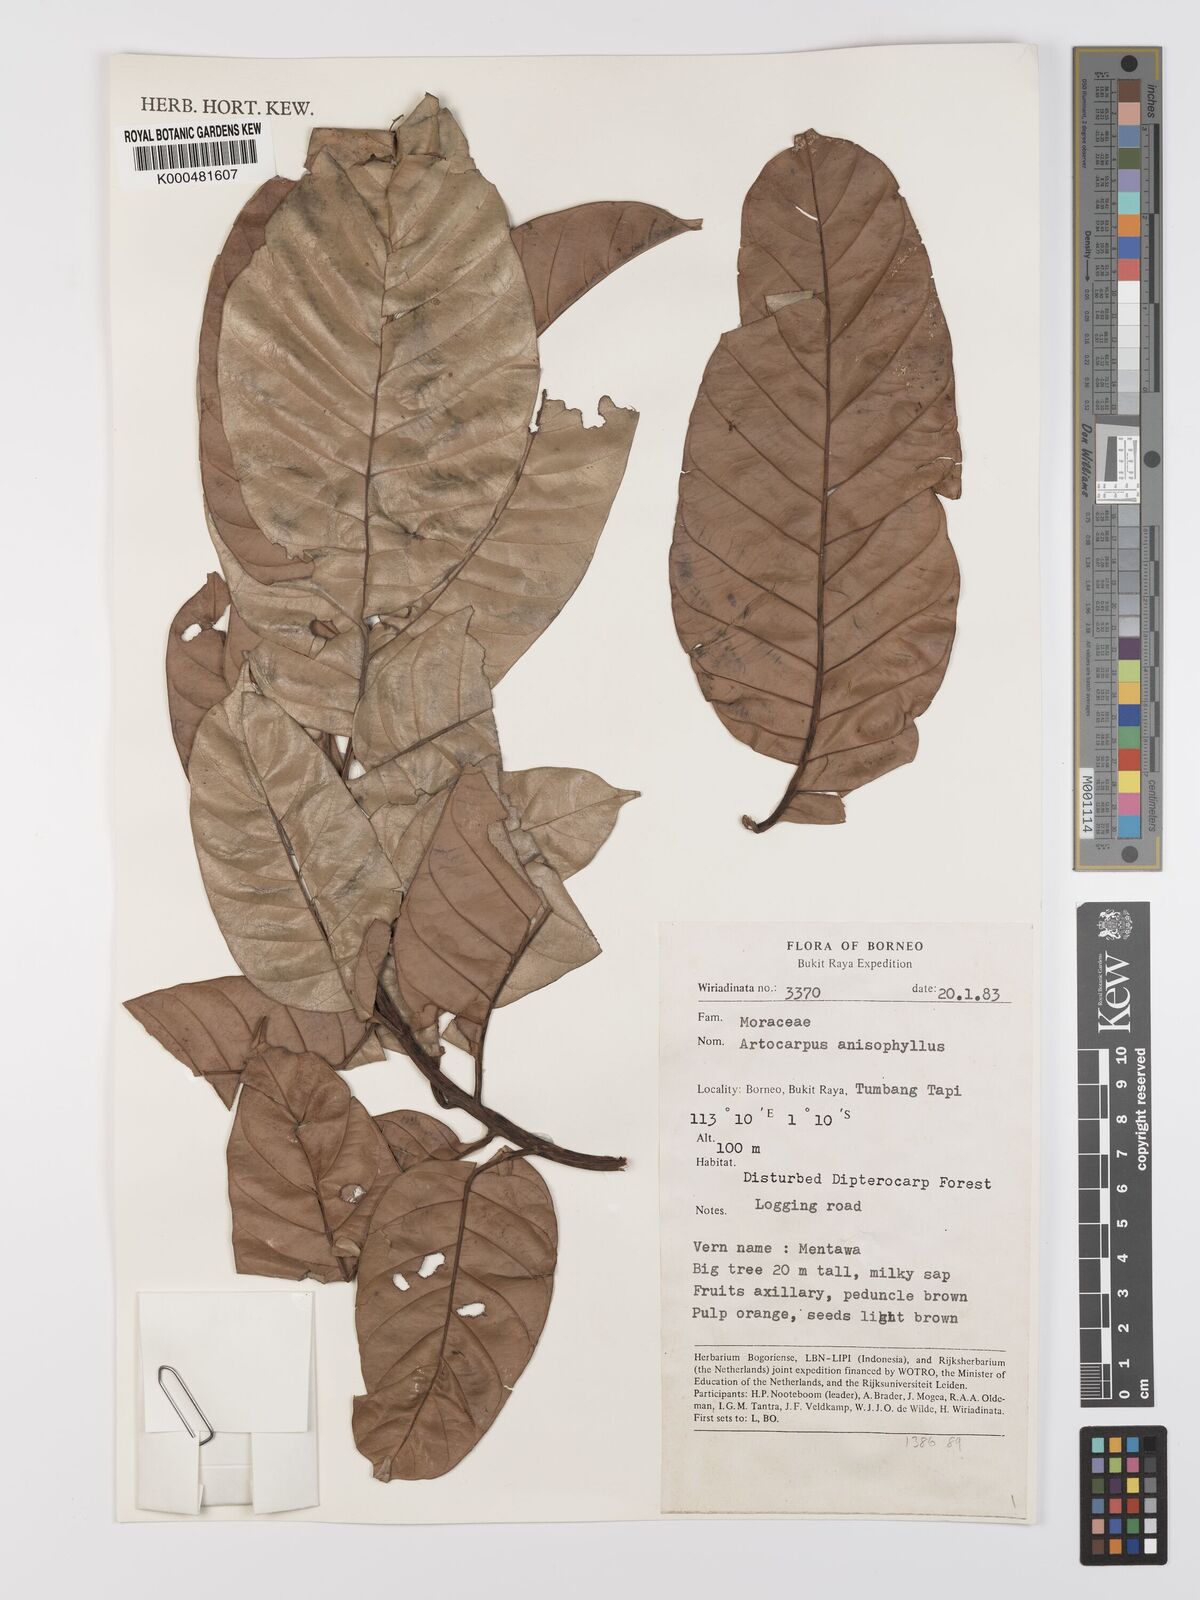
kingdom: Plantae
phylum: Tracheophyta
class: Magnoliopsida
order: Rosales
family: Moraceae
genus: Artocarpus
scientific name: Artocarpus anisophyllus
